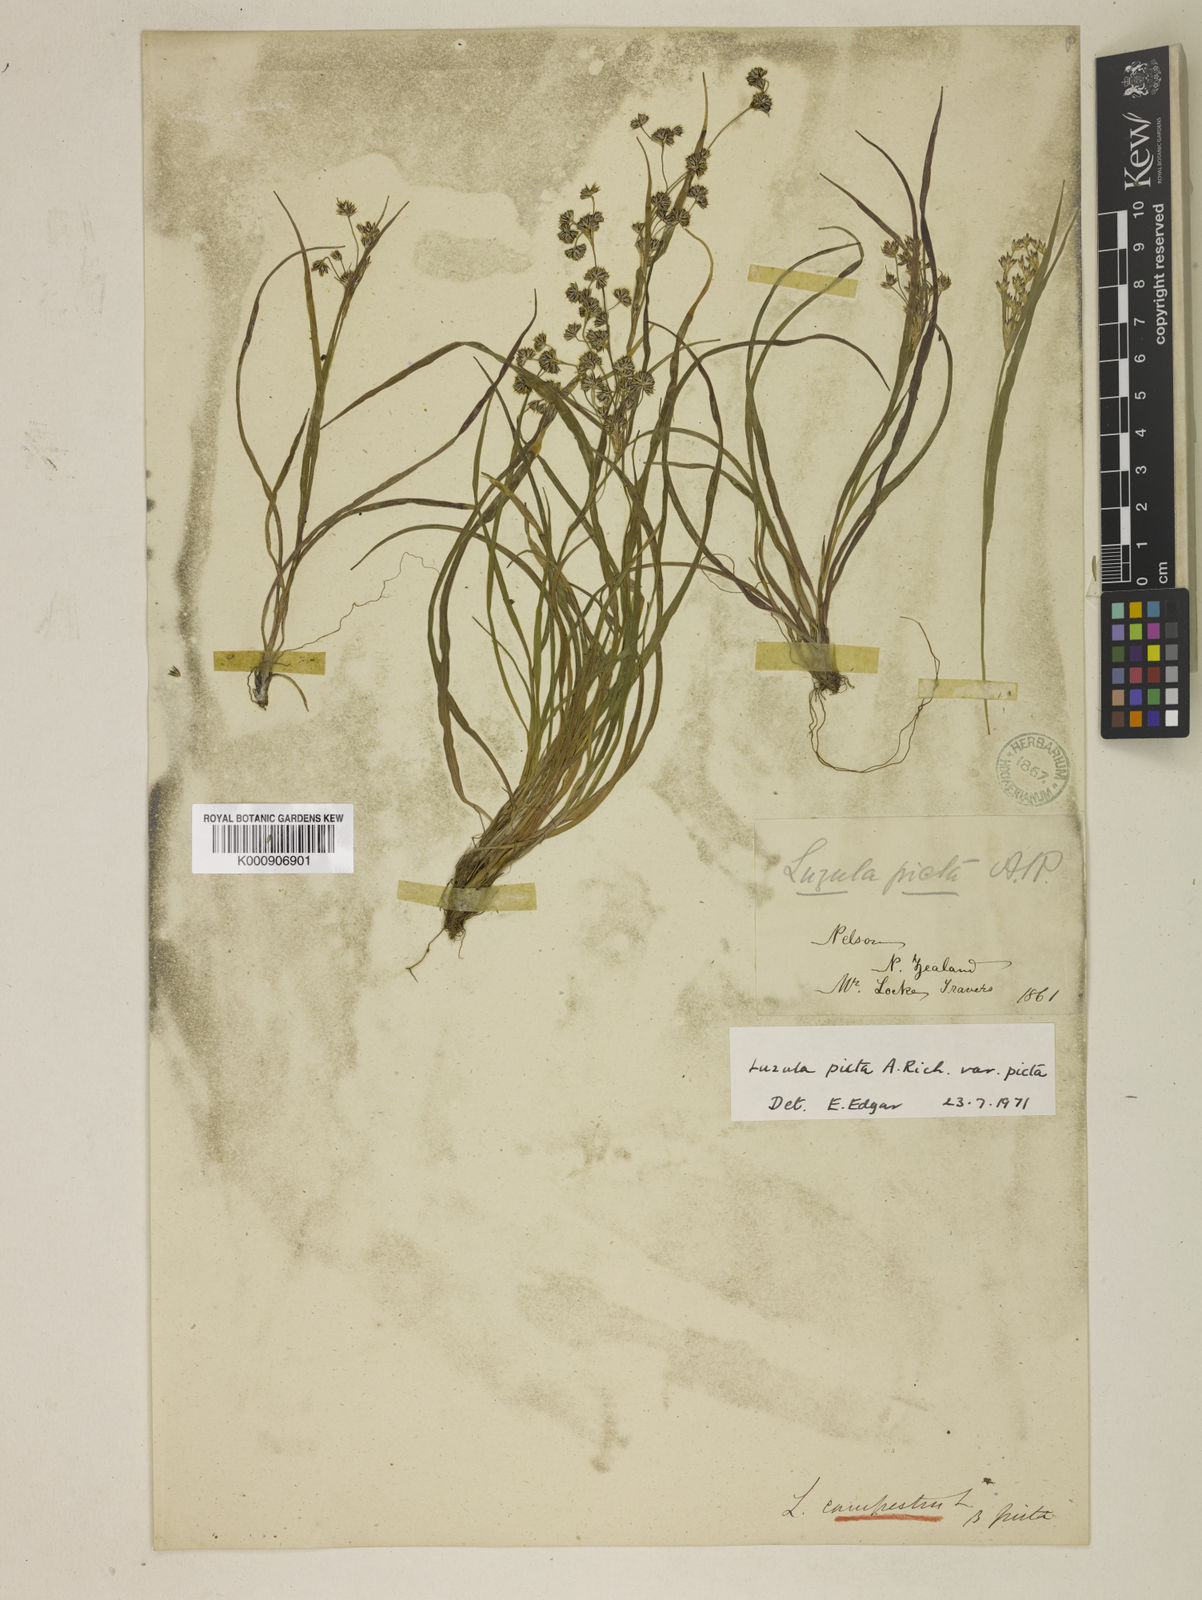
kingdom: Plantae
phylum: Tracheophyta
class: Liliopsida
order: Poales
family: Juncaceae
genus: Luzula
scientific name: Luzula campestris
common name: Field wood-rush
